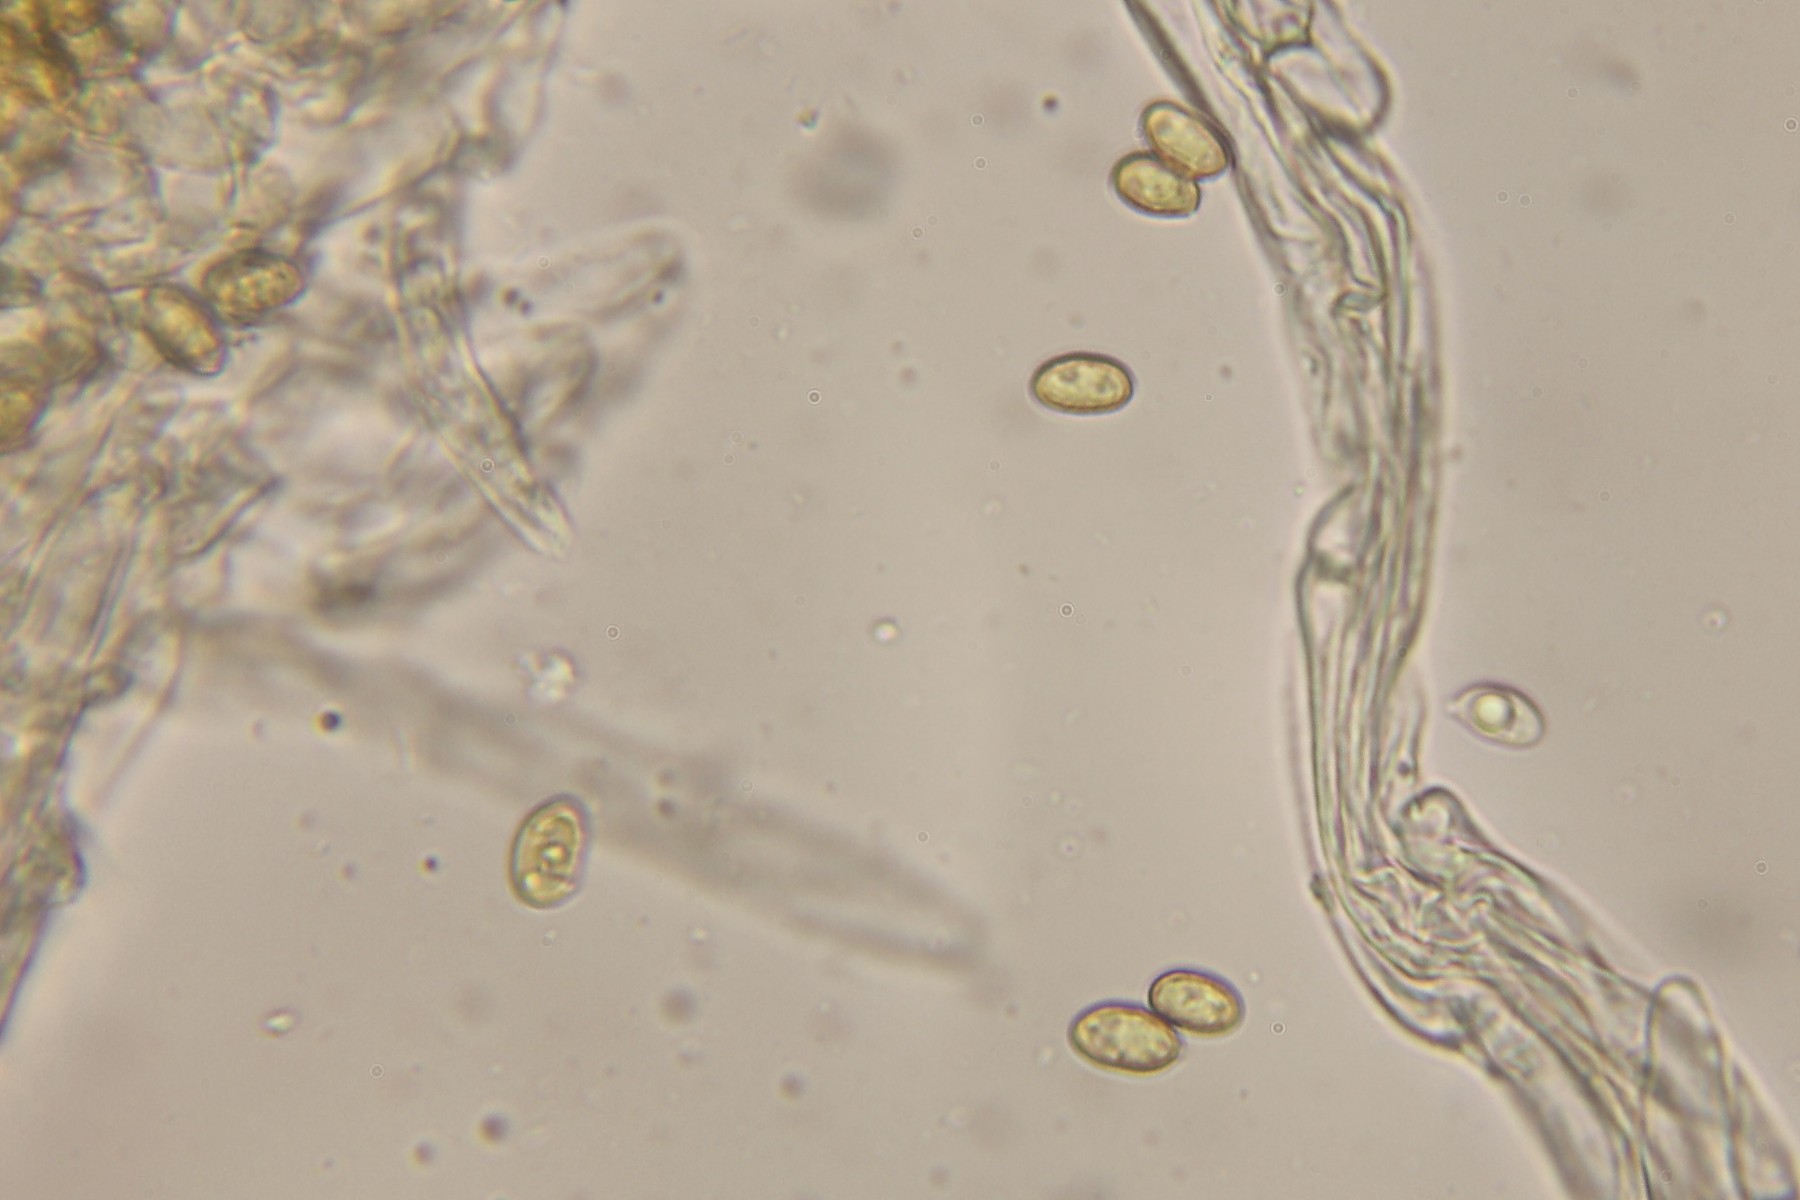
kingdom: Fungi
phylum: Basidiomycota
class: Agaricomycetes
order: Agaricales
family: Cortinariaceae
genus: Cortinarius
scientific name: Cortinarius acutus
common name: spids slørhat
